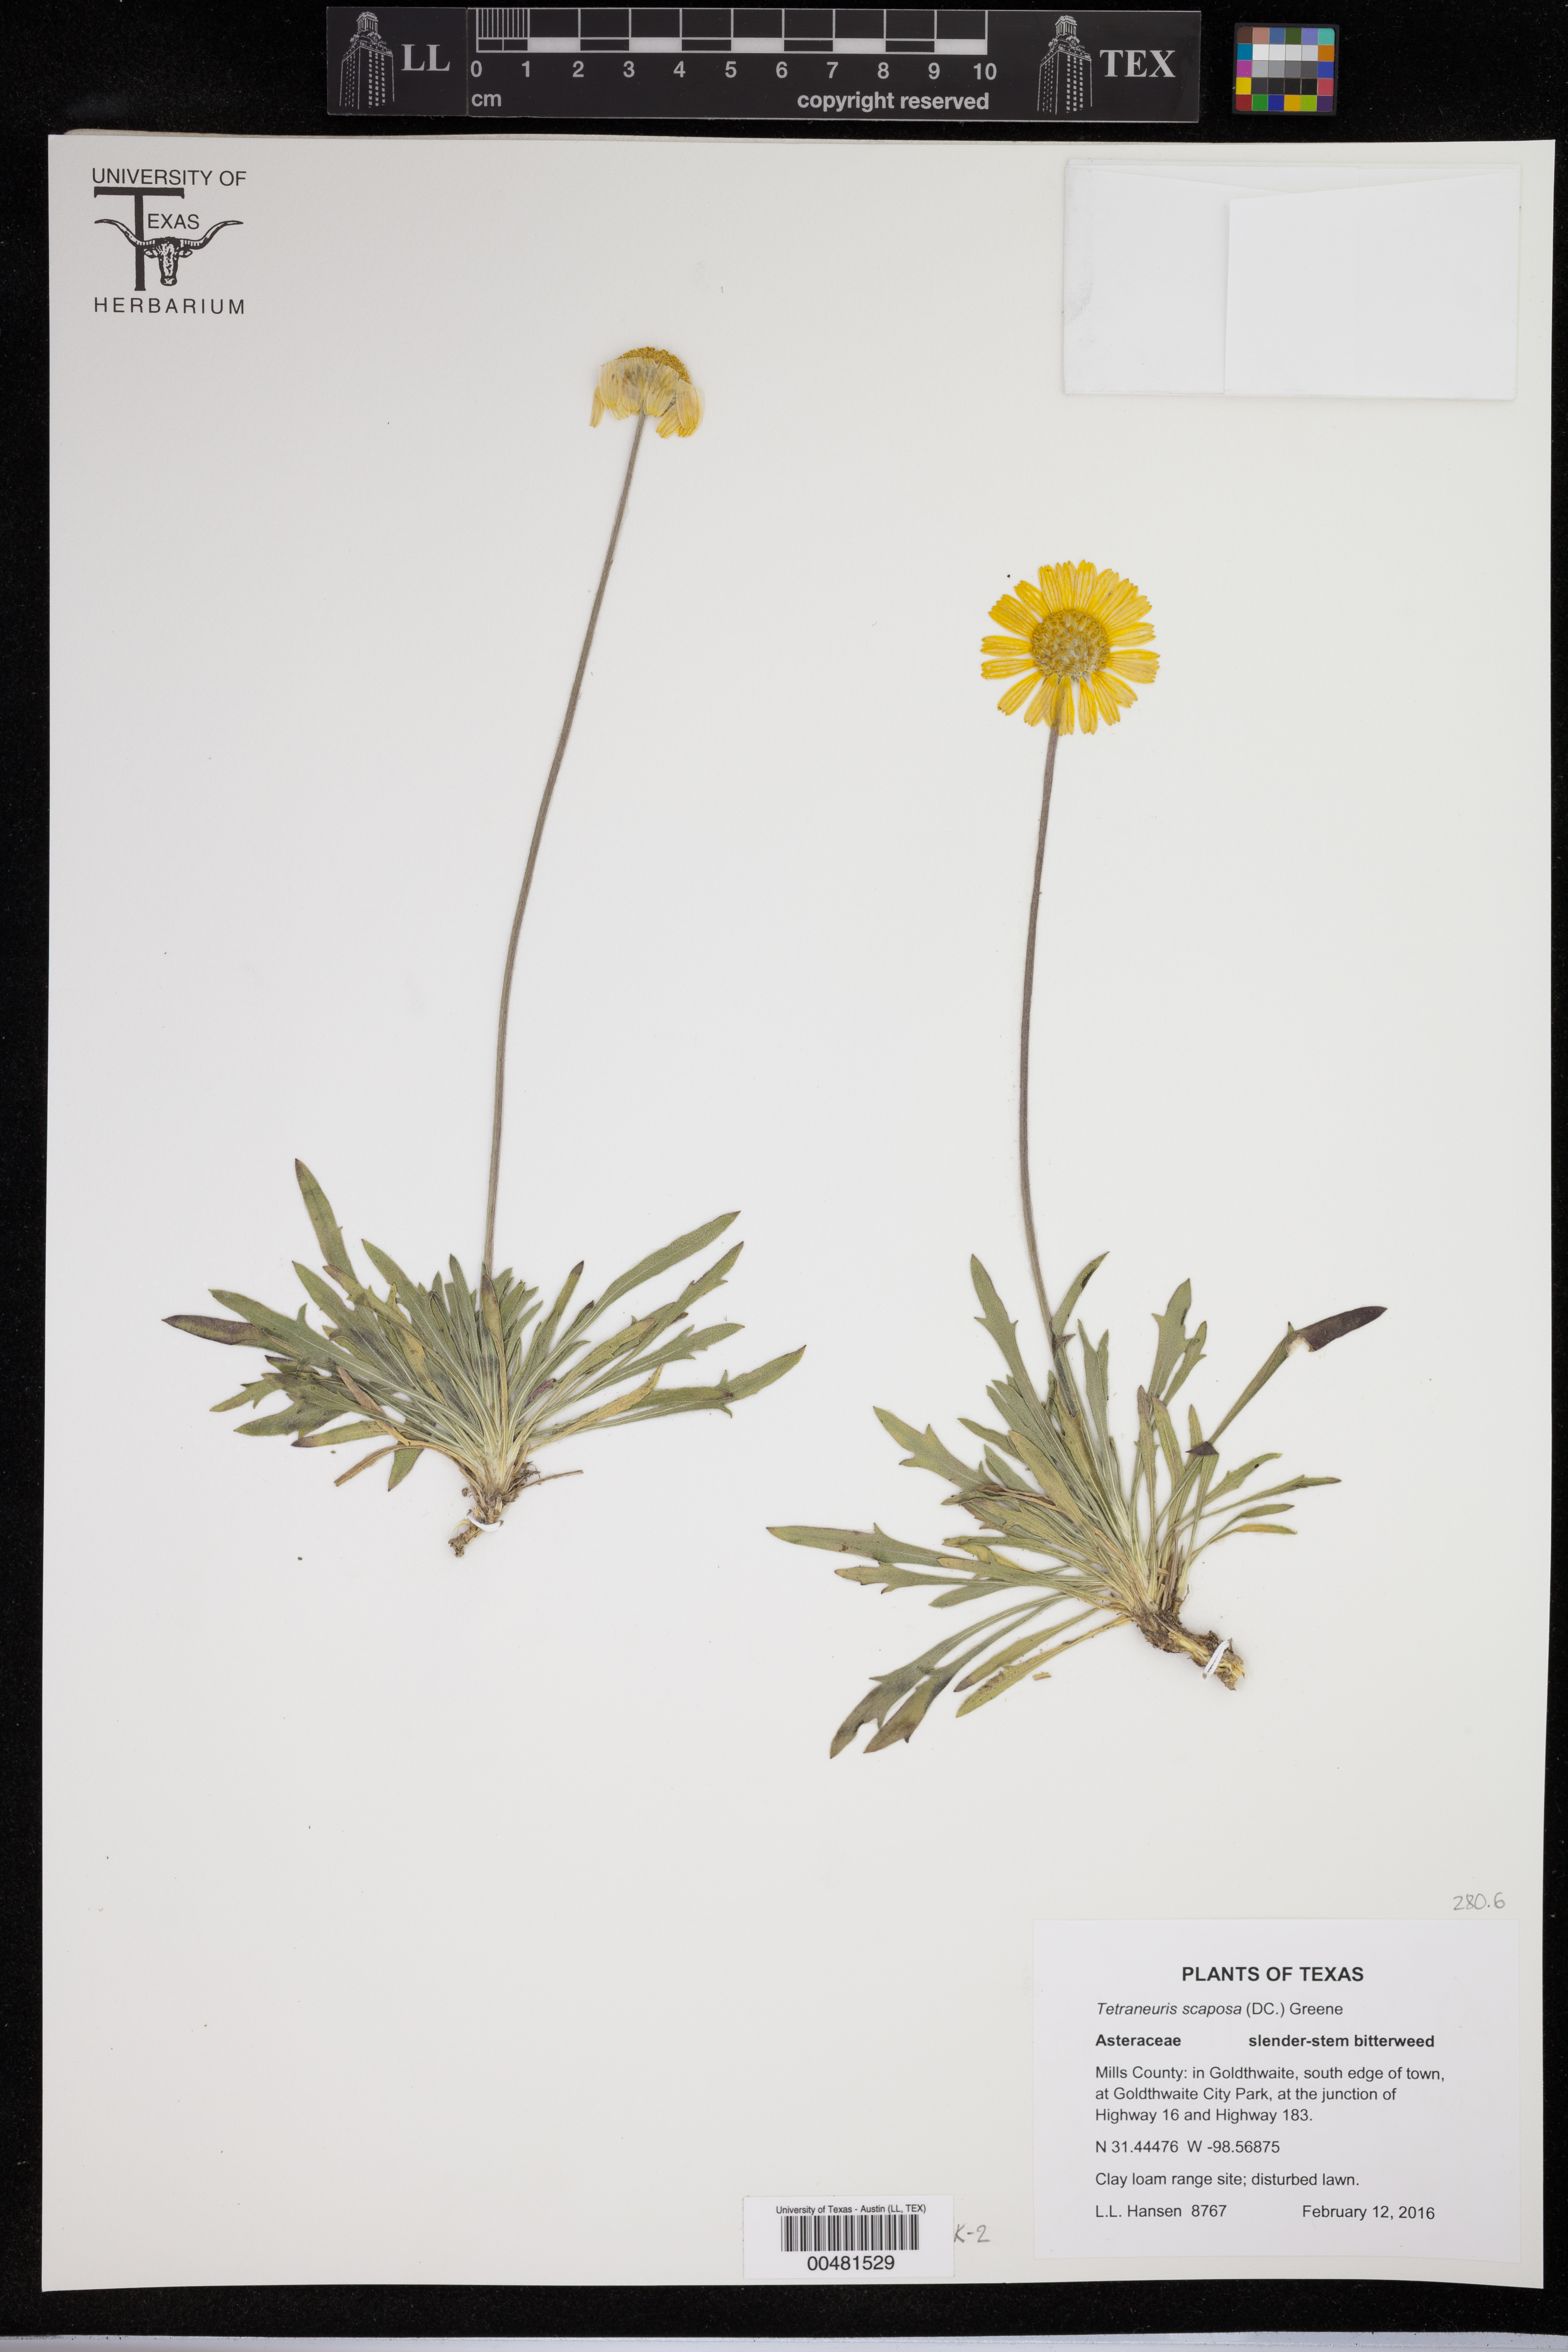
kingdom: Plantae
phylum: Tracheophyta
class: Magnoliopsida
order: Asterales
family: Asteraceae
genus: Tetraneuris
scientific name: Tetraneuris scaposa
